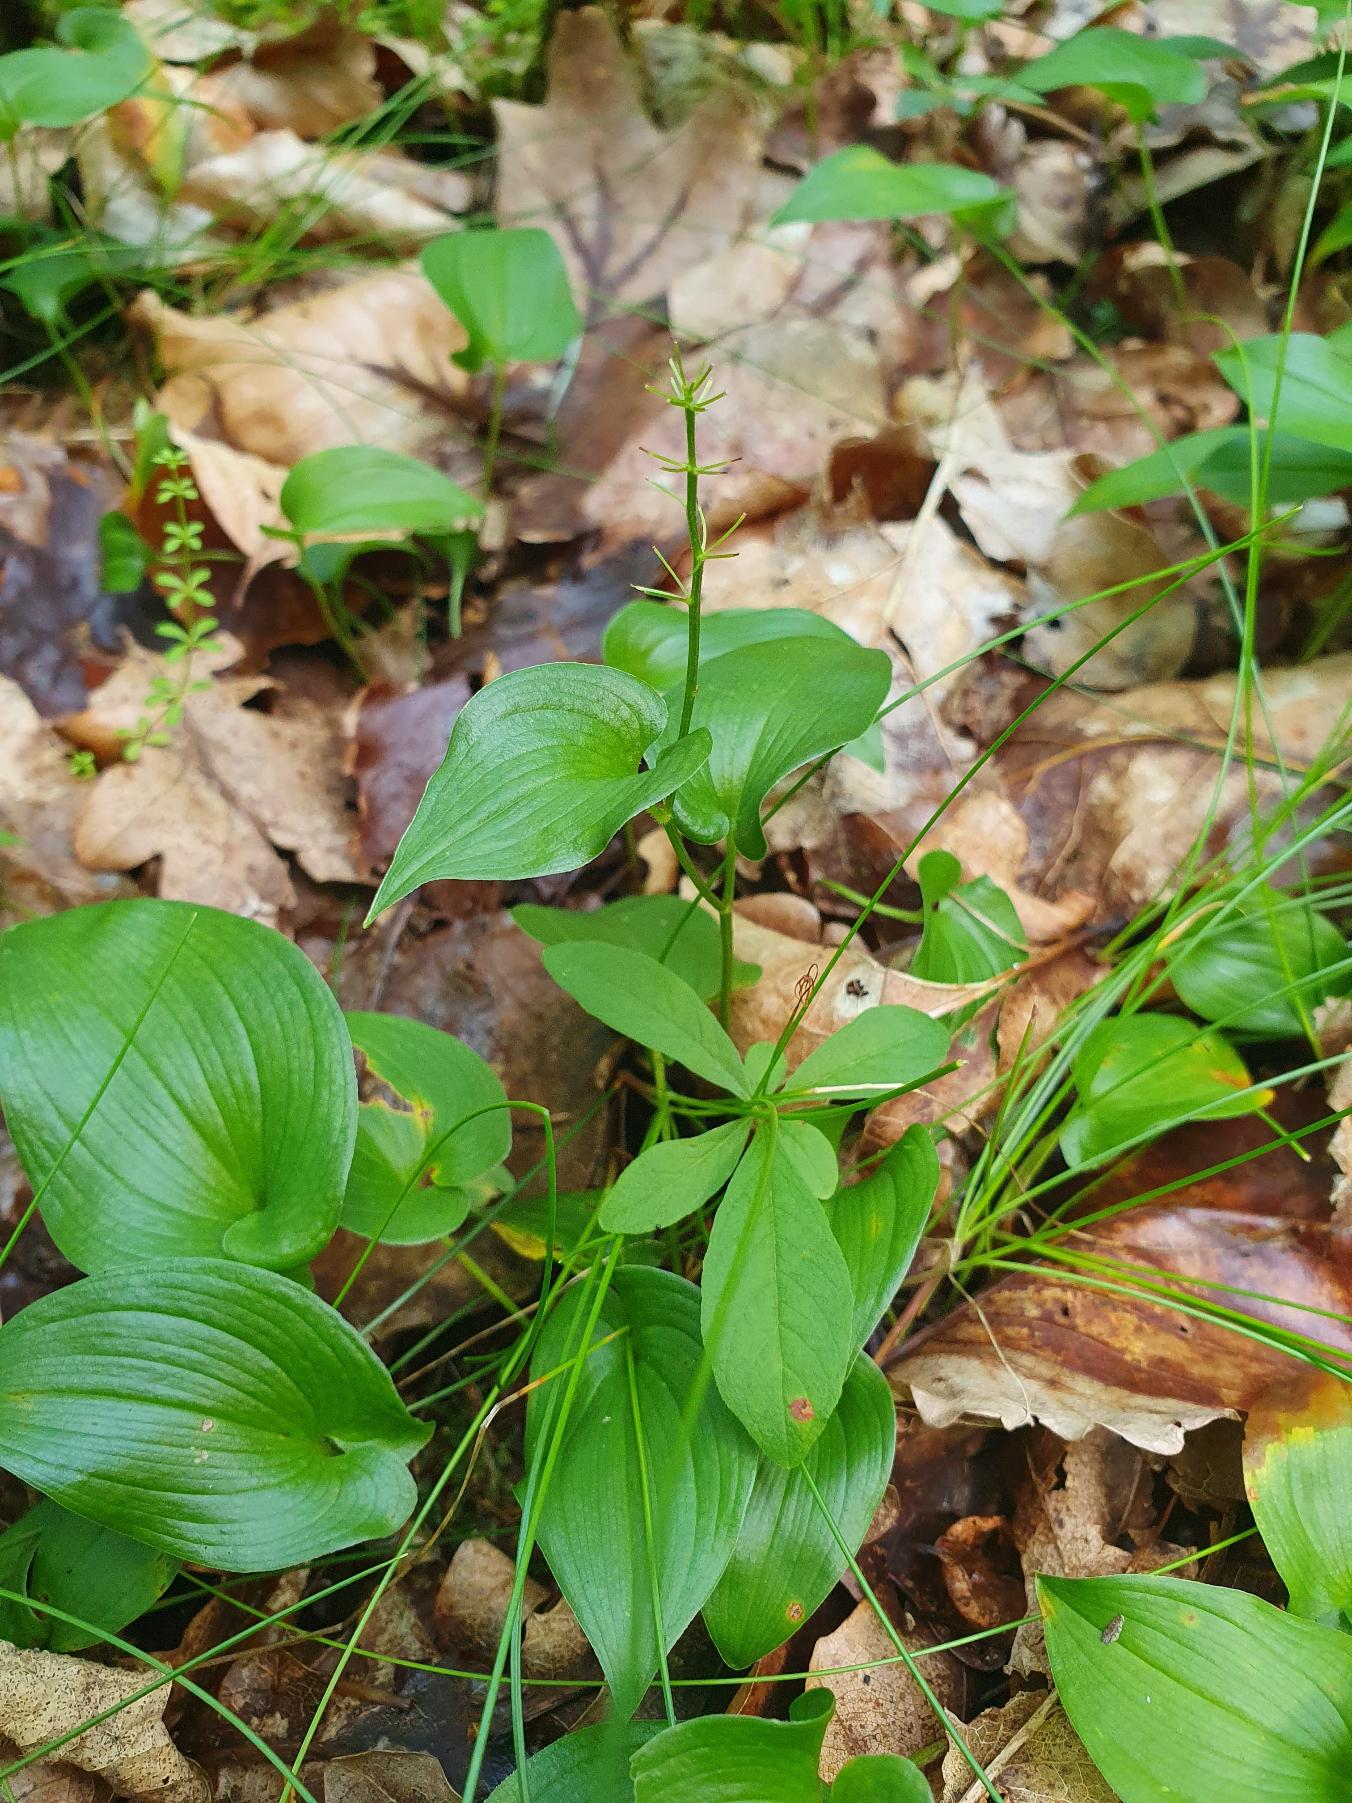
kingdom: Plantae
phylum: Tracheophyta
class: Liliopsida
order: Asparagales
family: Asparagaceae
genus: Maianthemum
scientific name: Maianthemum bifolium
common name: Majblomst
